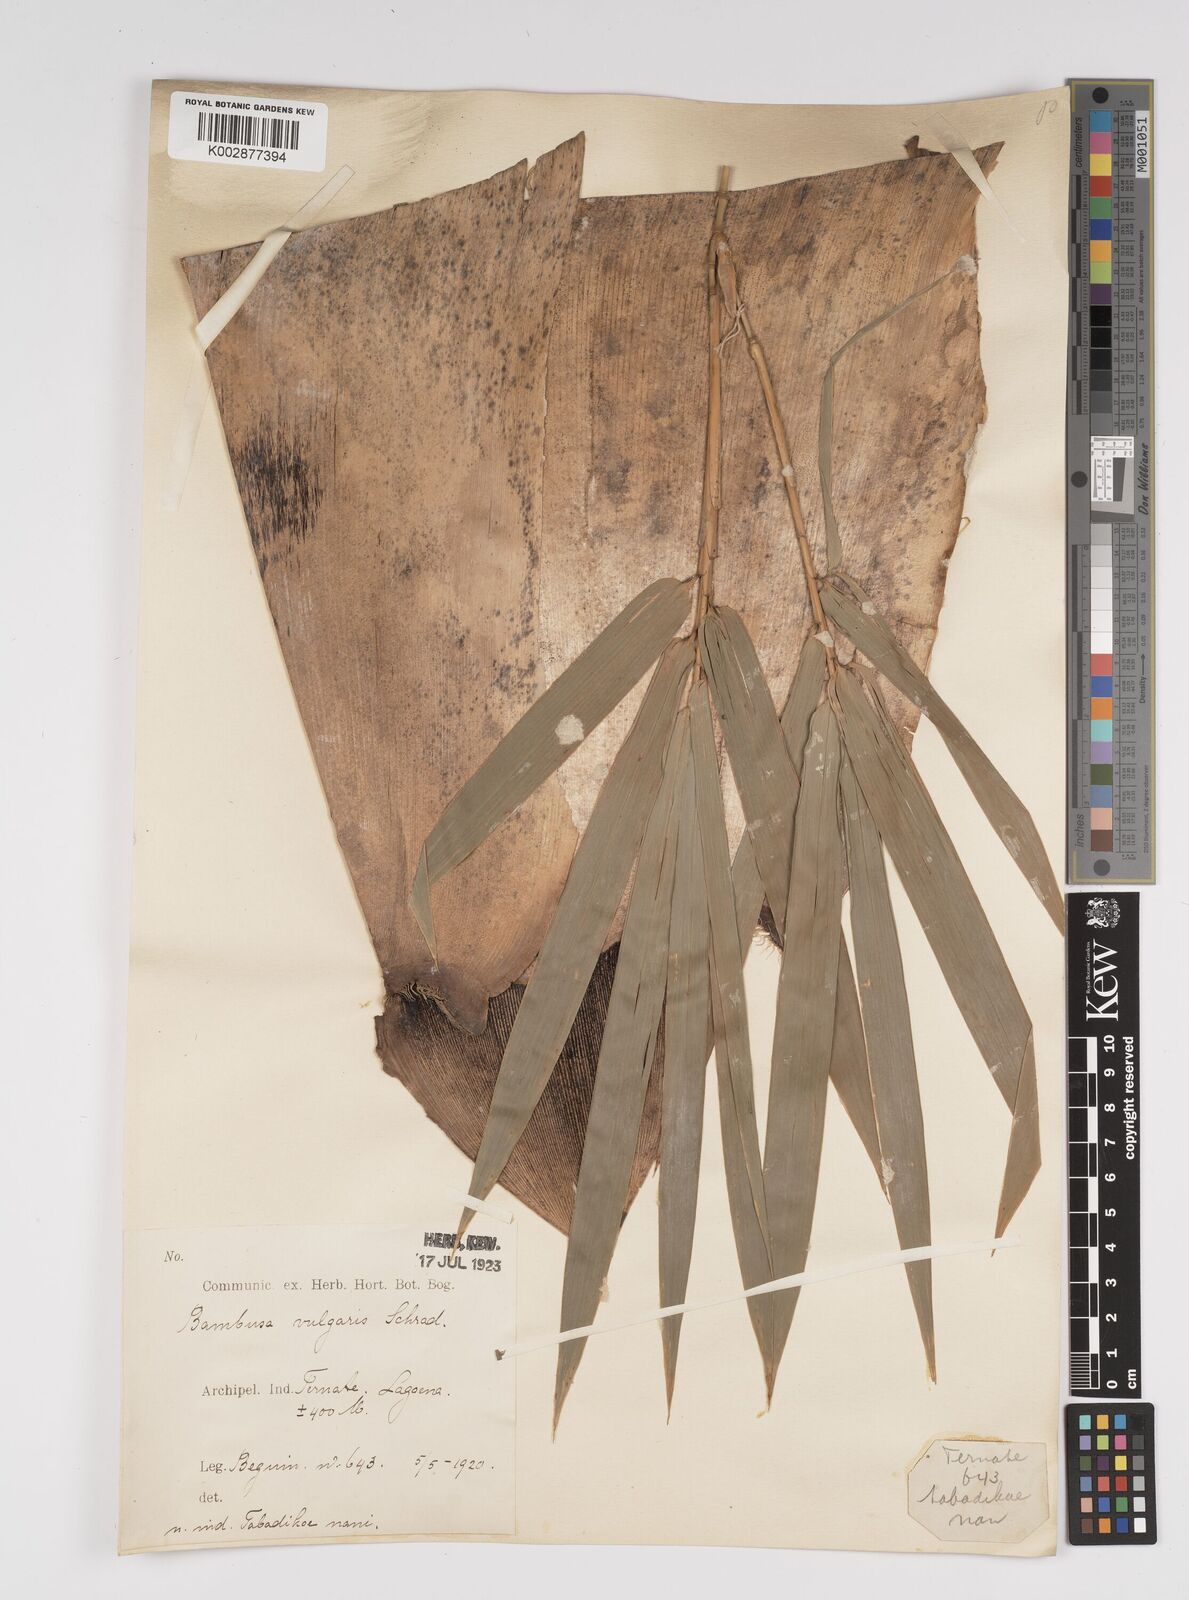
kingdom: Plantae
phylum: Tracheophyta
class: Liliopsida
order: Poales
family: Poaceae
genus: Bambusa
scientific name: Bambusa
